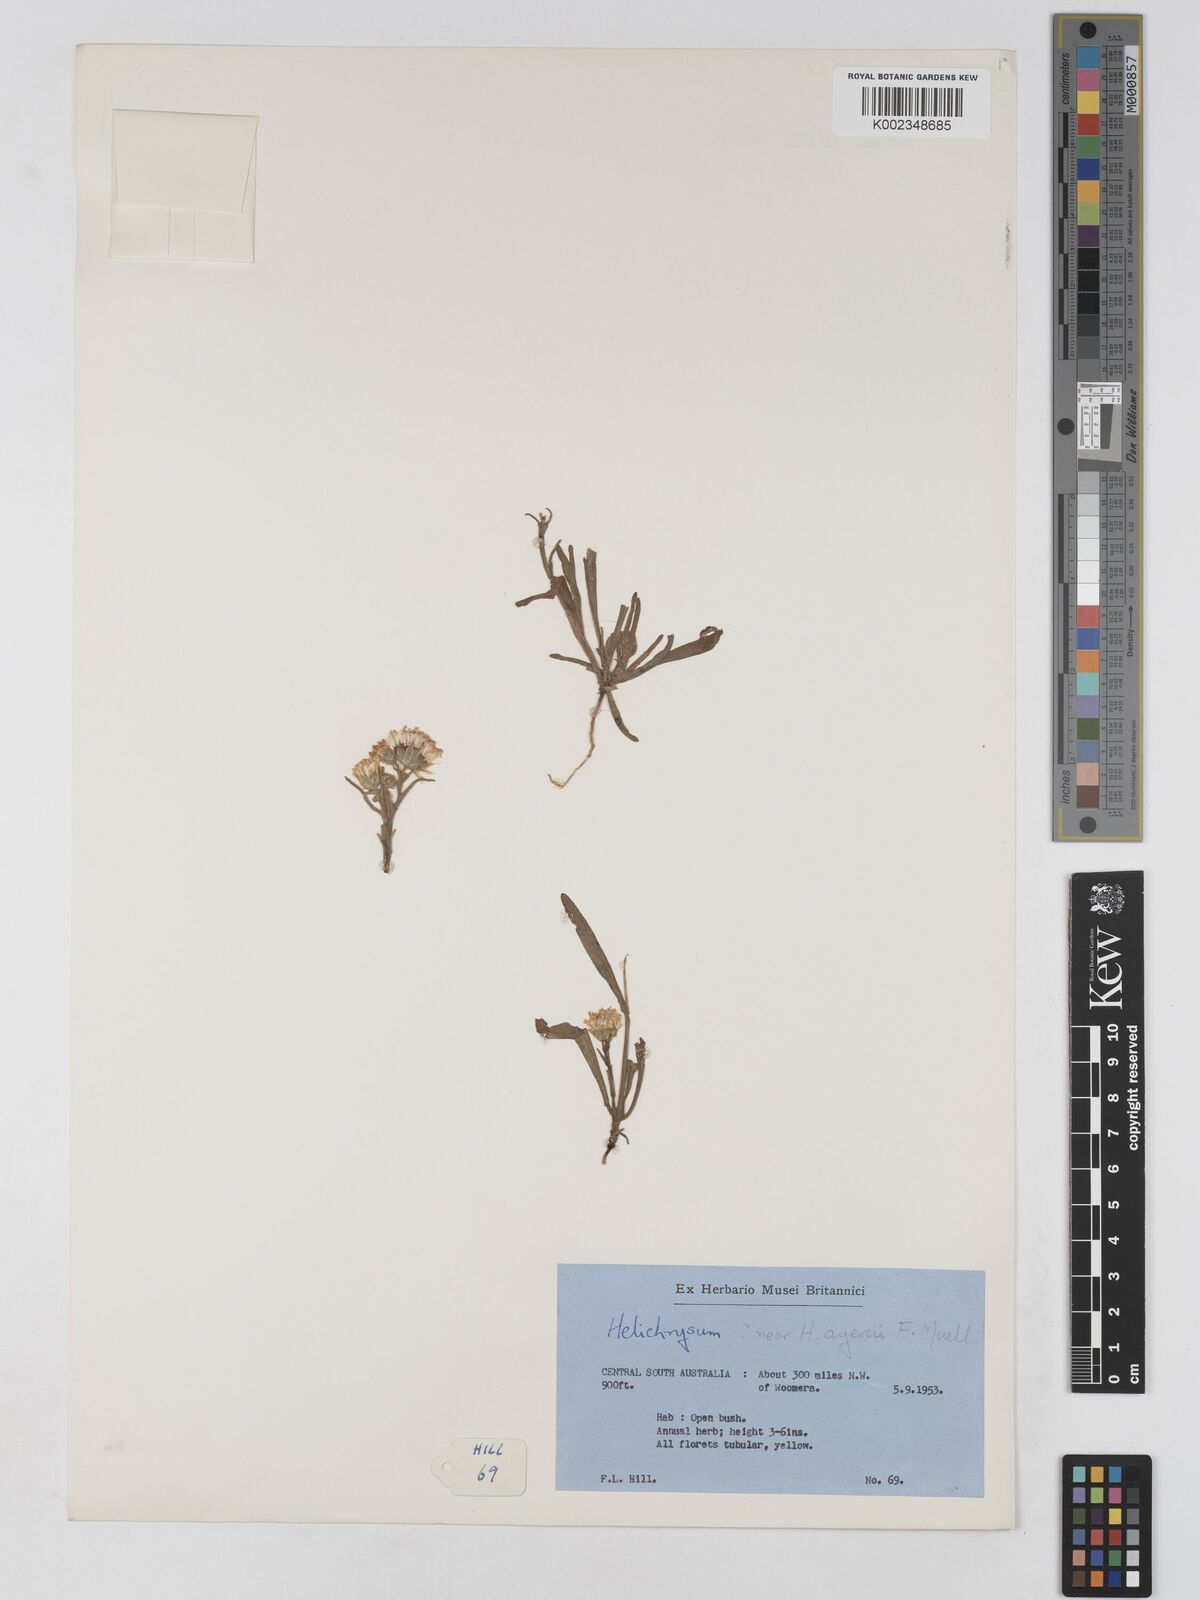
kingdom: Plantae
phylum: Tracheophyta
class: Magnoliopsida
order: Asterales
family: Asteraceae
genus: Schoenia
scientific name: Schoenia ayersii
